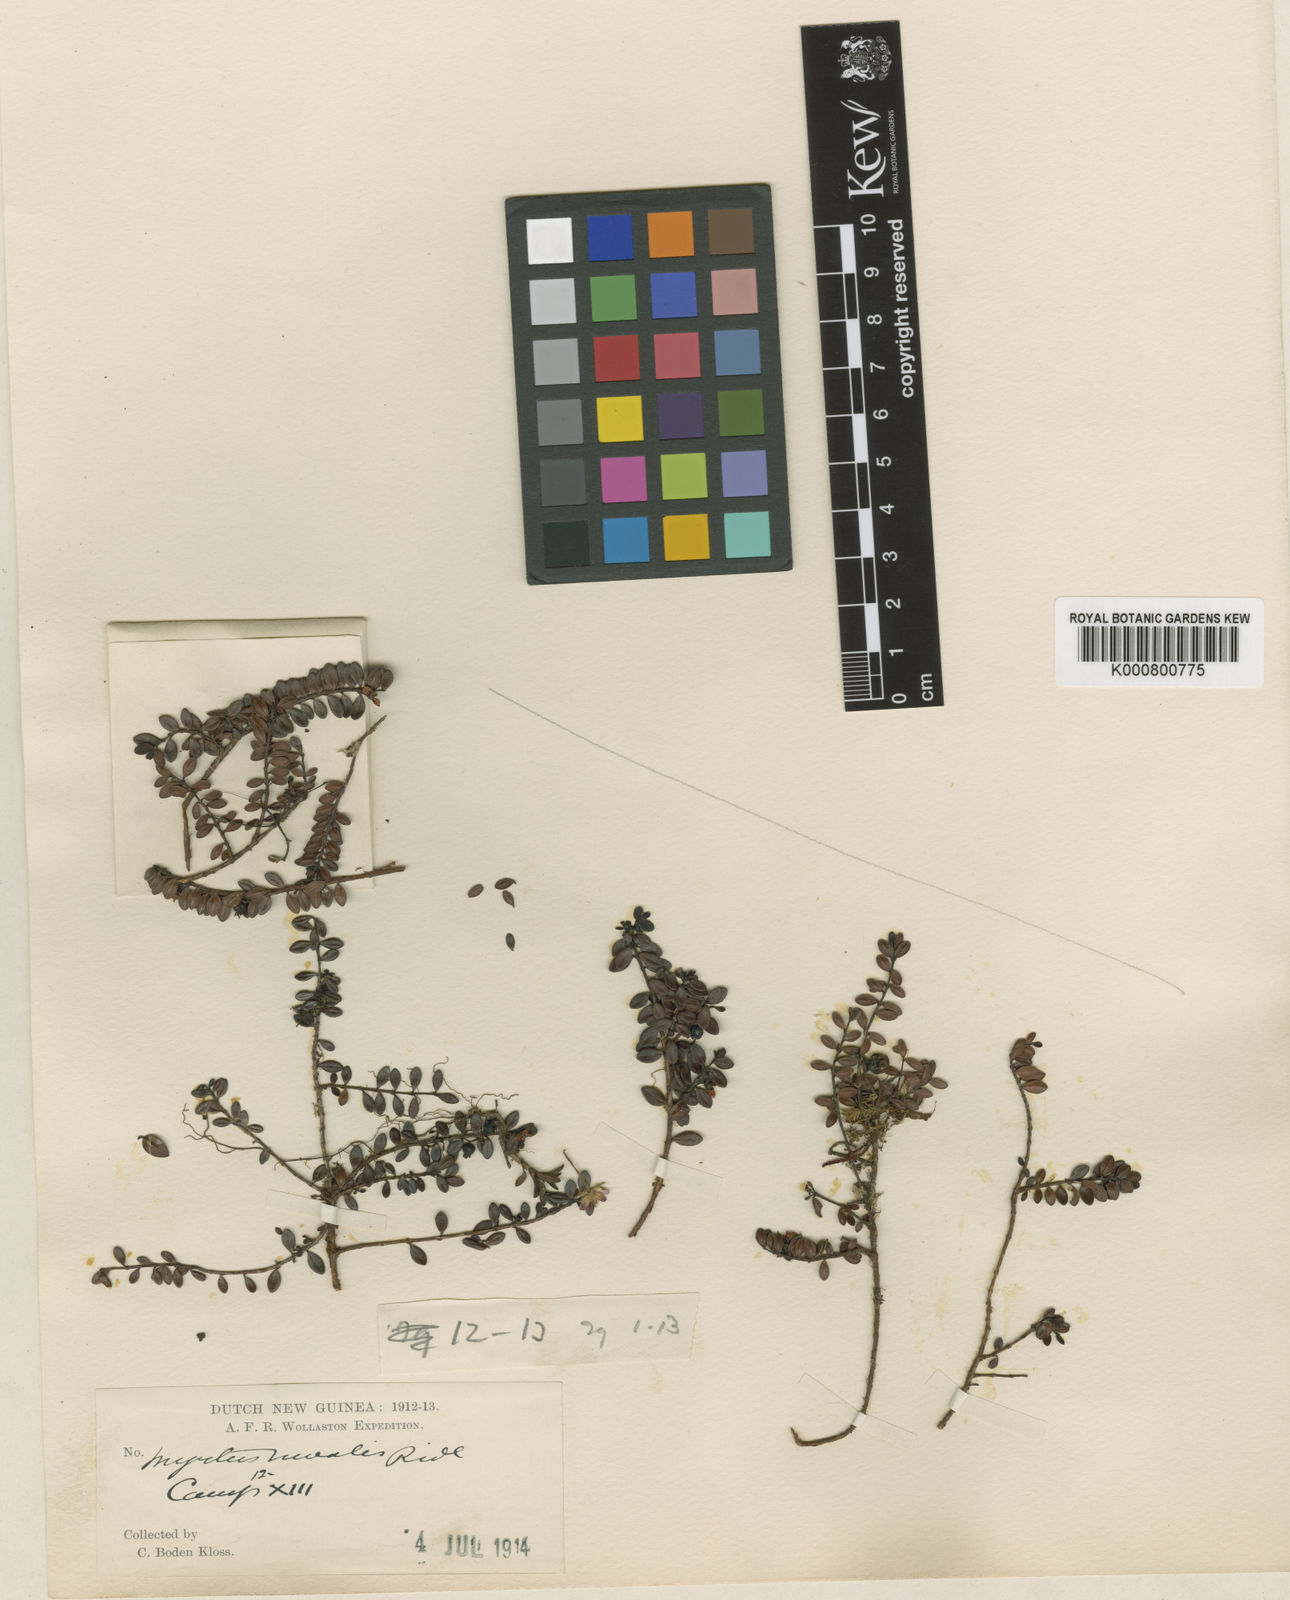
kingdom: Plantae
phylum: Tracheophyta
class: Magnoliopsida
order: Myrtales
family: Myrtaceae
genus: Decaspermum
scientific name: Decaspermum nivale
